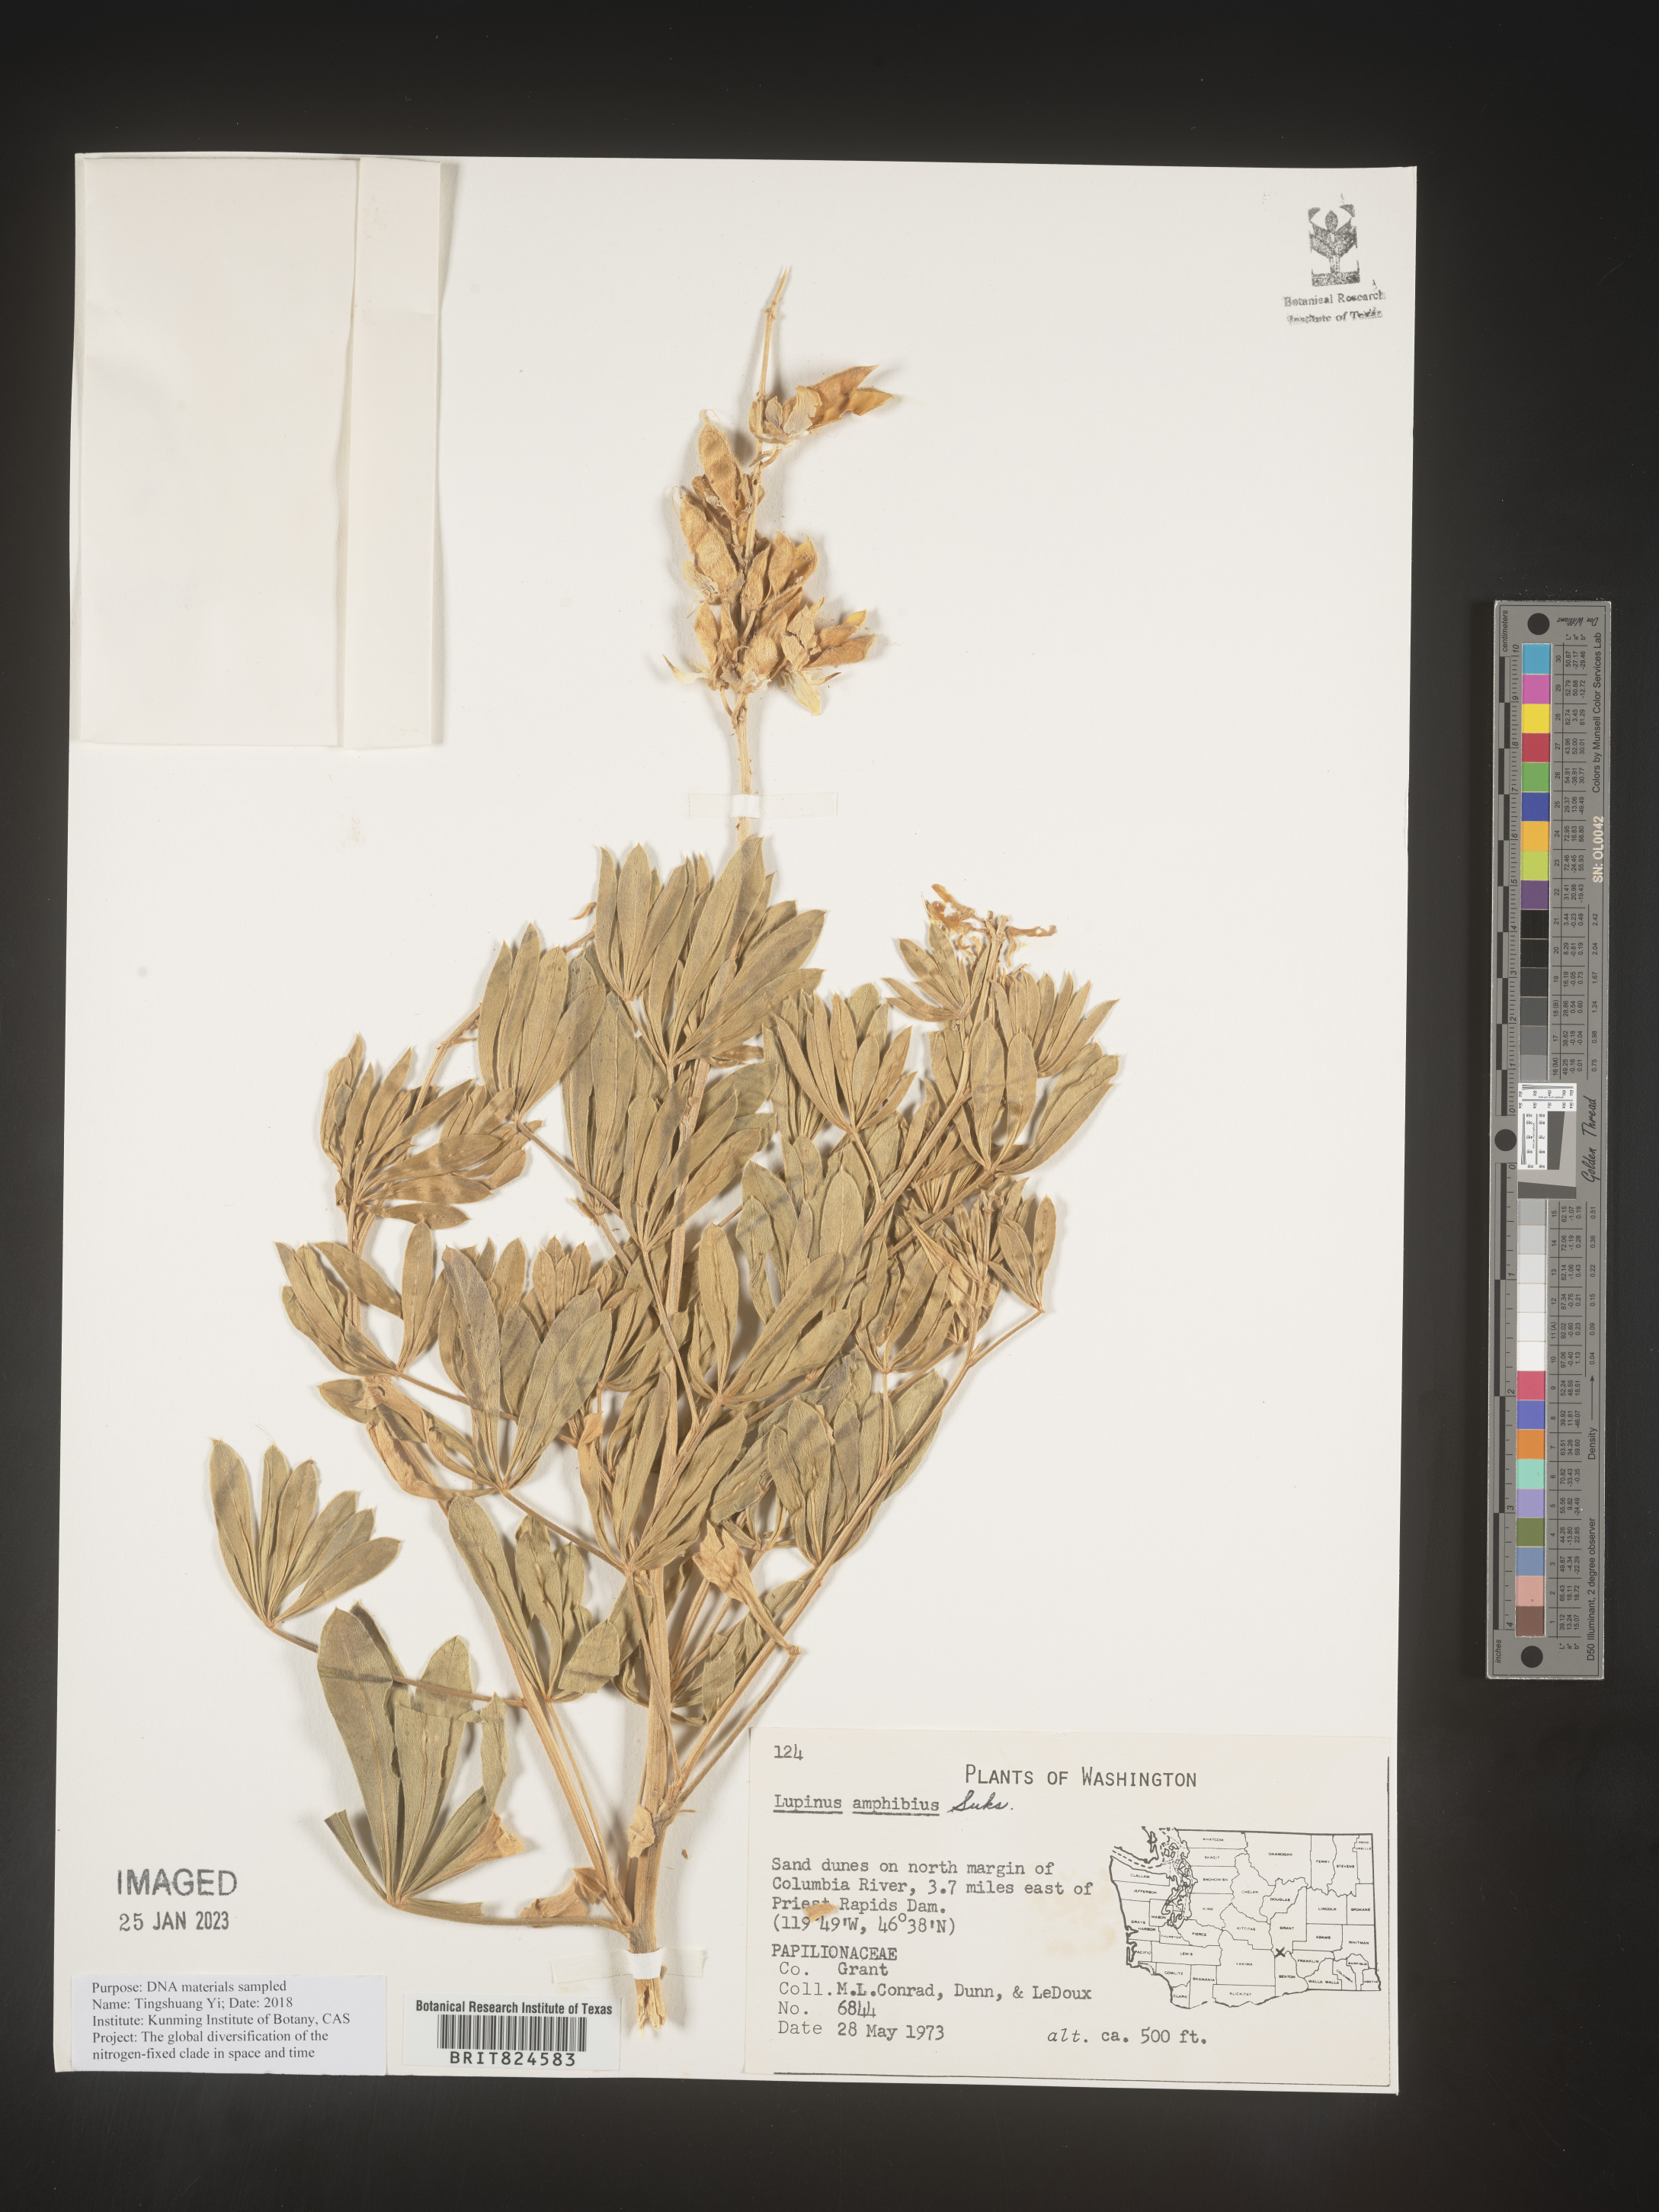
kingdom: Plantae
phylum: Tracheophyta
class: Magnoliopsida
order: Fabales
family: Fabaceae
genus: Lupinus
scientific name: Lupinus
